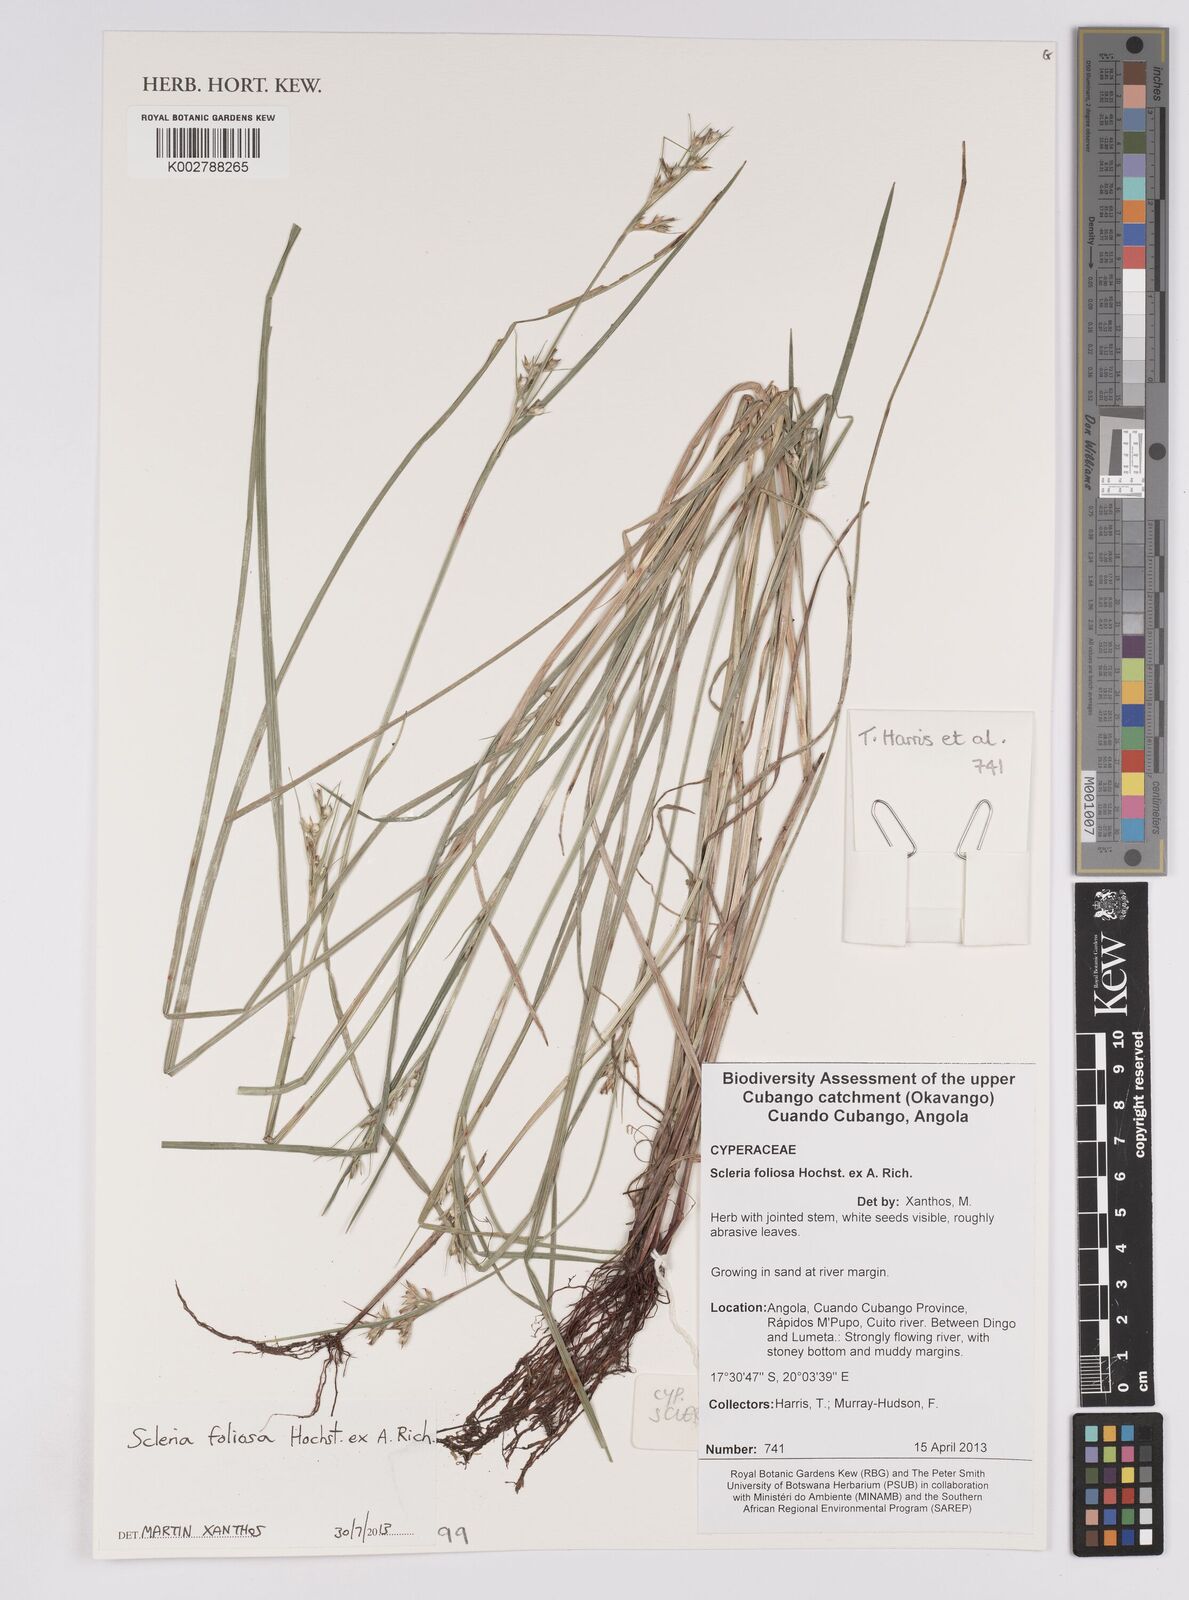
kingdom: Plantae
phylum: Tracheophyta
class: Liliopsida
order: Poales
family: Cyperaceae
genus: Scleria
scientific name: Scleria foliosa
